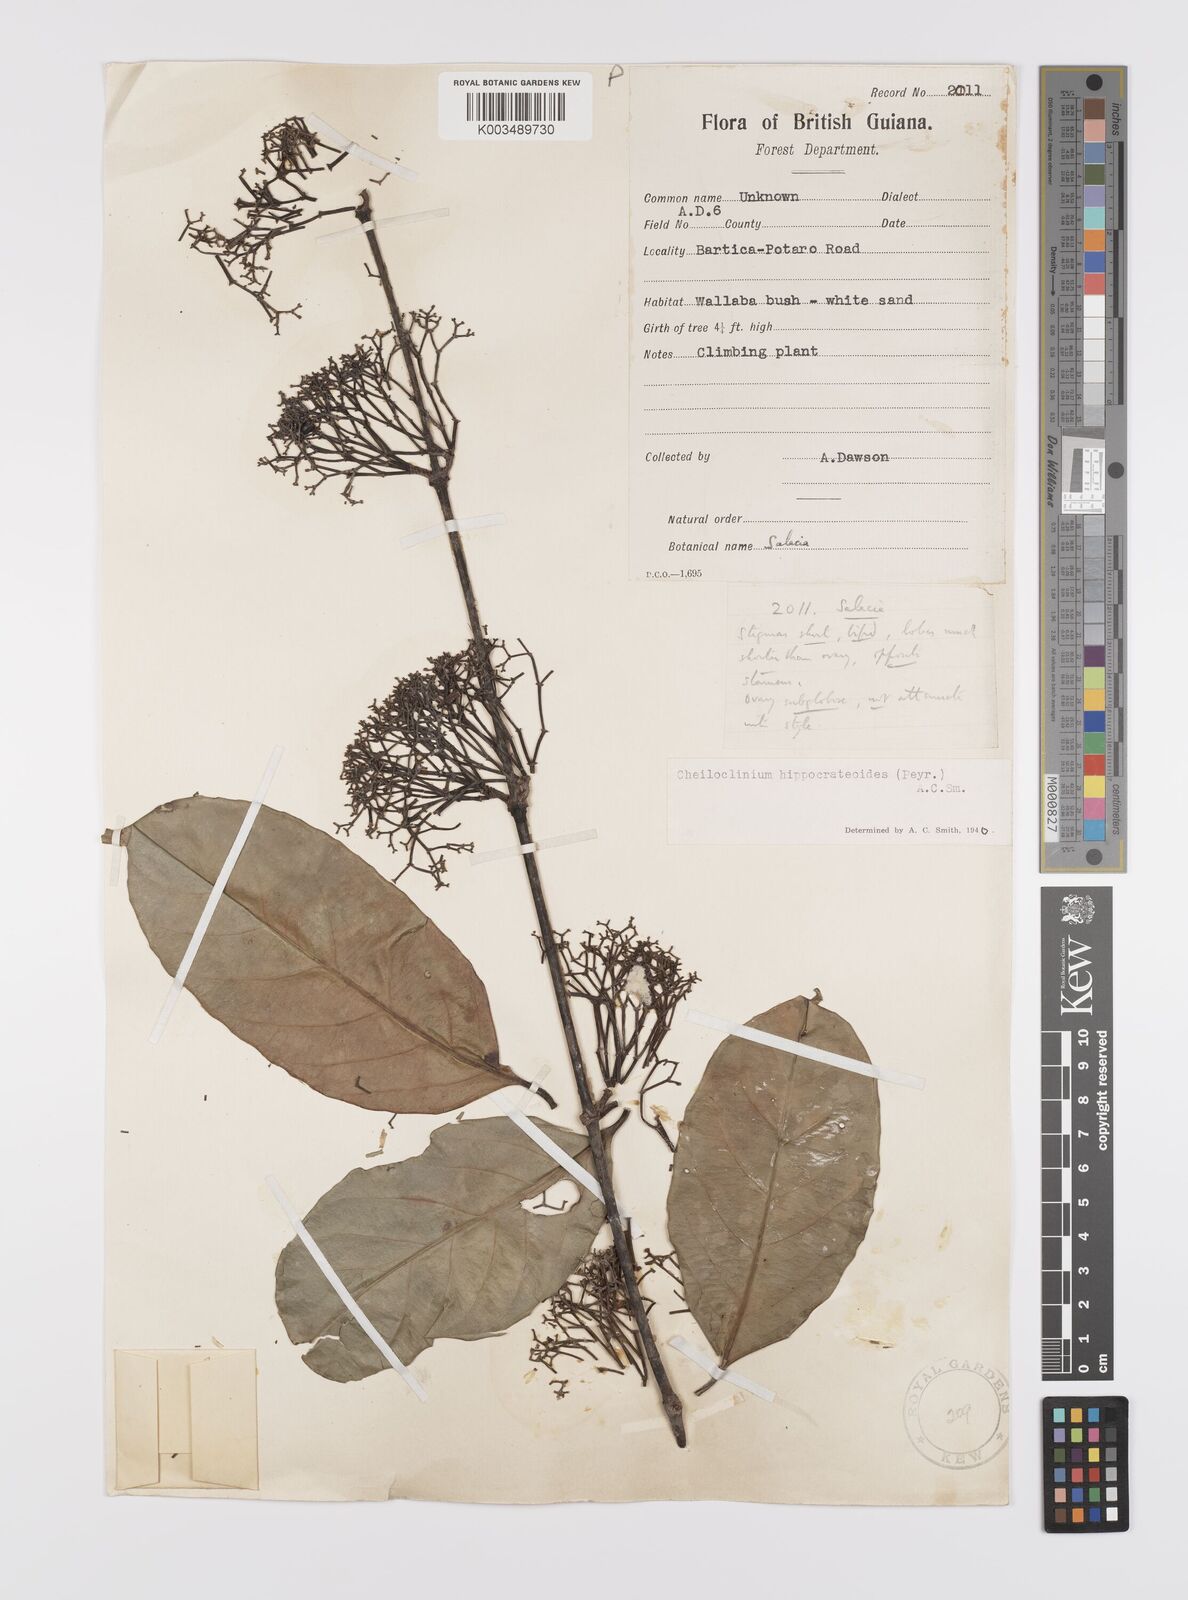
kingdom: Plantae
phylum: Tracheophyta
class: Magnoliopsida
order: Celastrales
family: Celastraceae
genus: Cheiloclinium
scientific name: Cheiloclinium hippocrateoides
